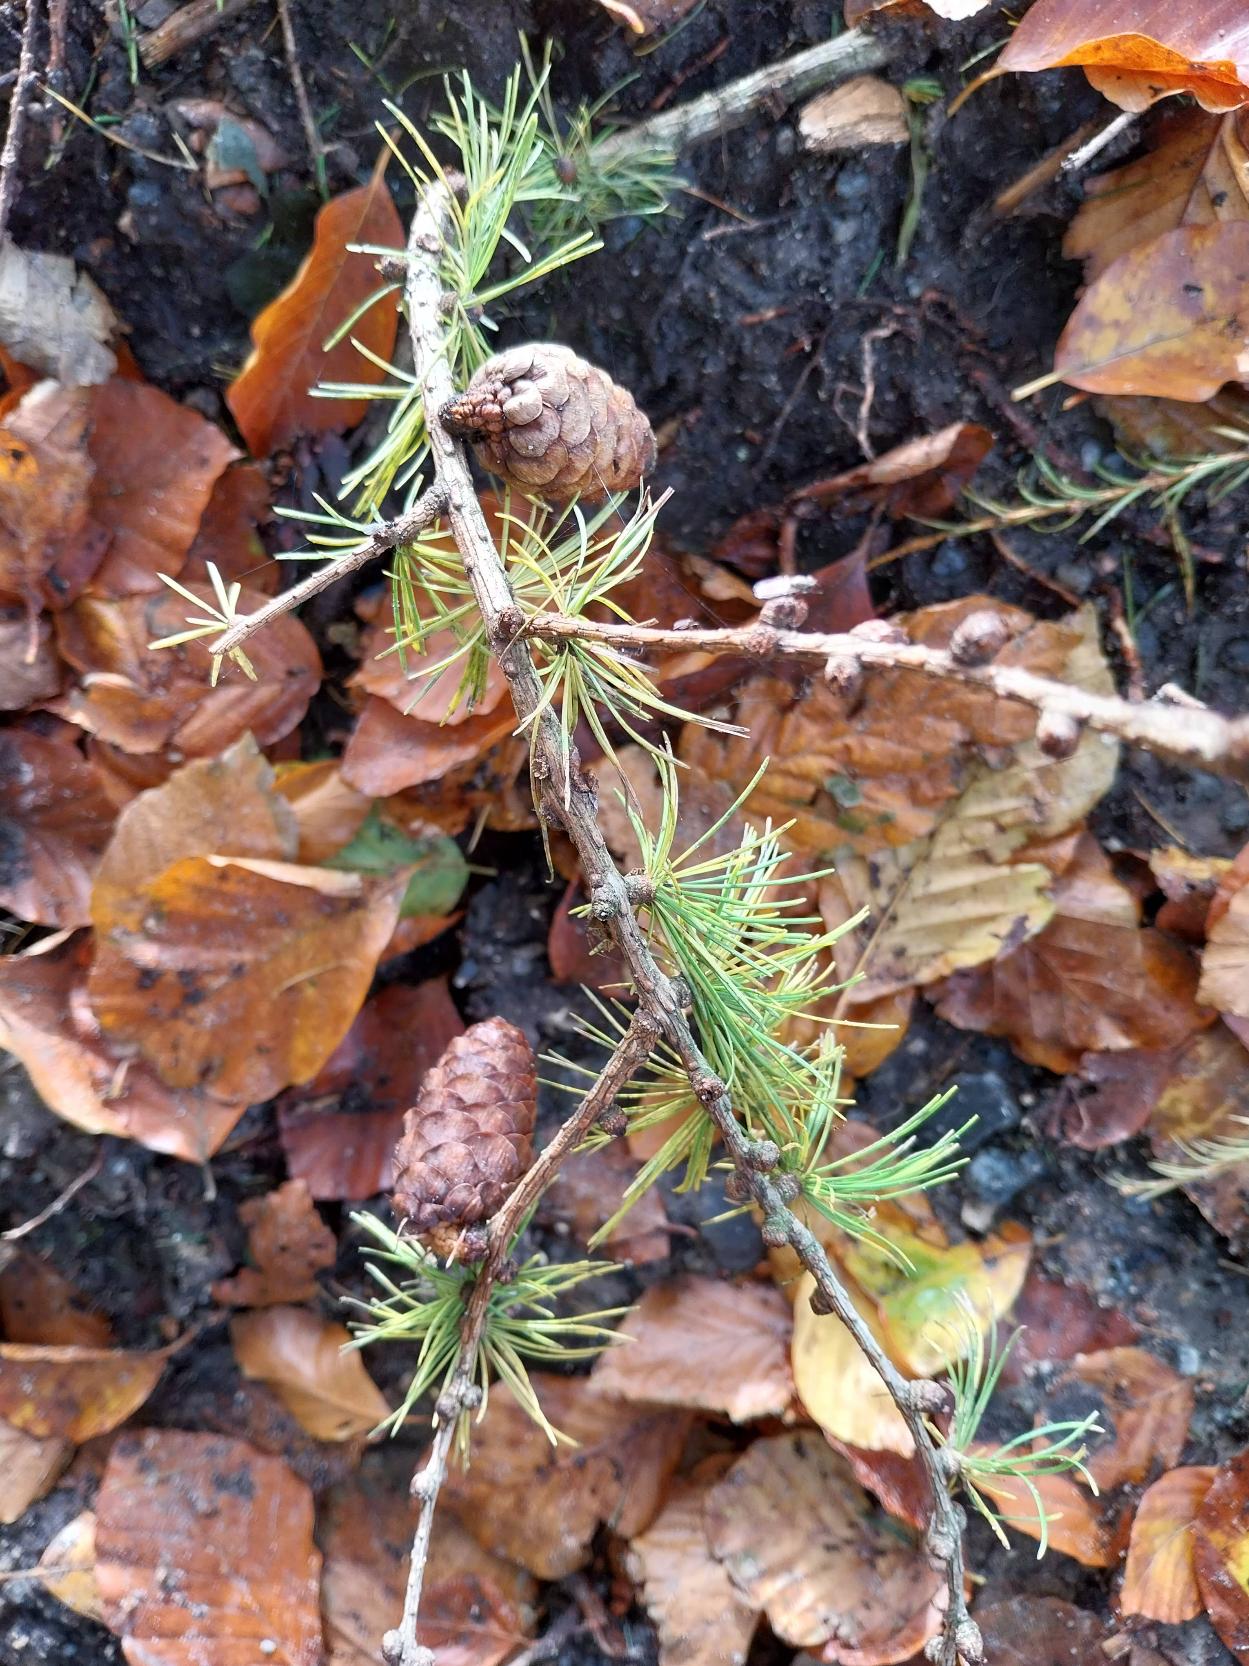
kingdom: Plantae
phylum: Tracheophyta
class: Pinopsida
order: Pinales
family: Pinaceae
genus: Larix
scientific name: Larix decidua
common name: Europæisk lærk
